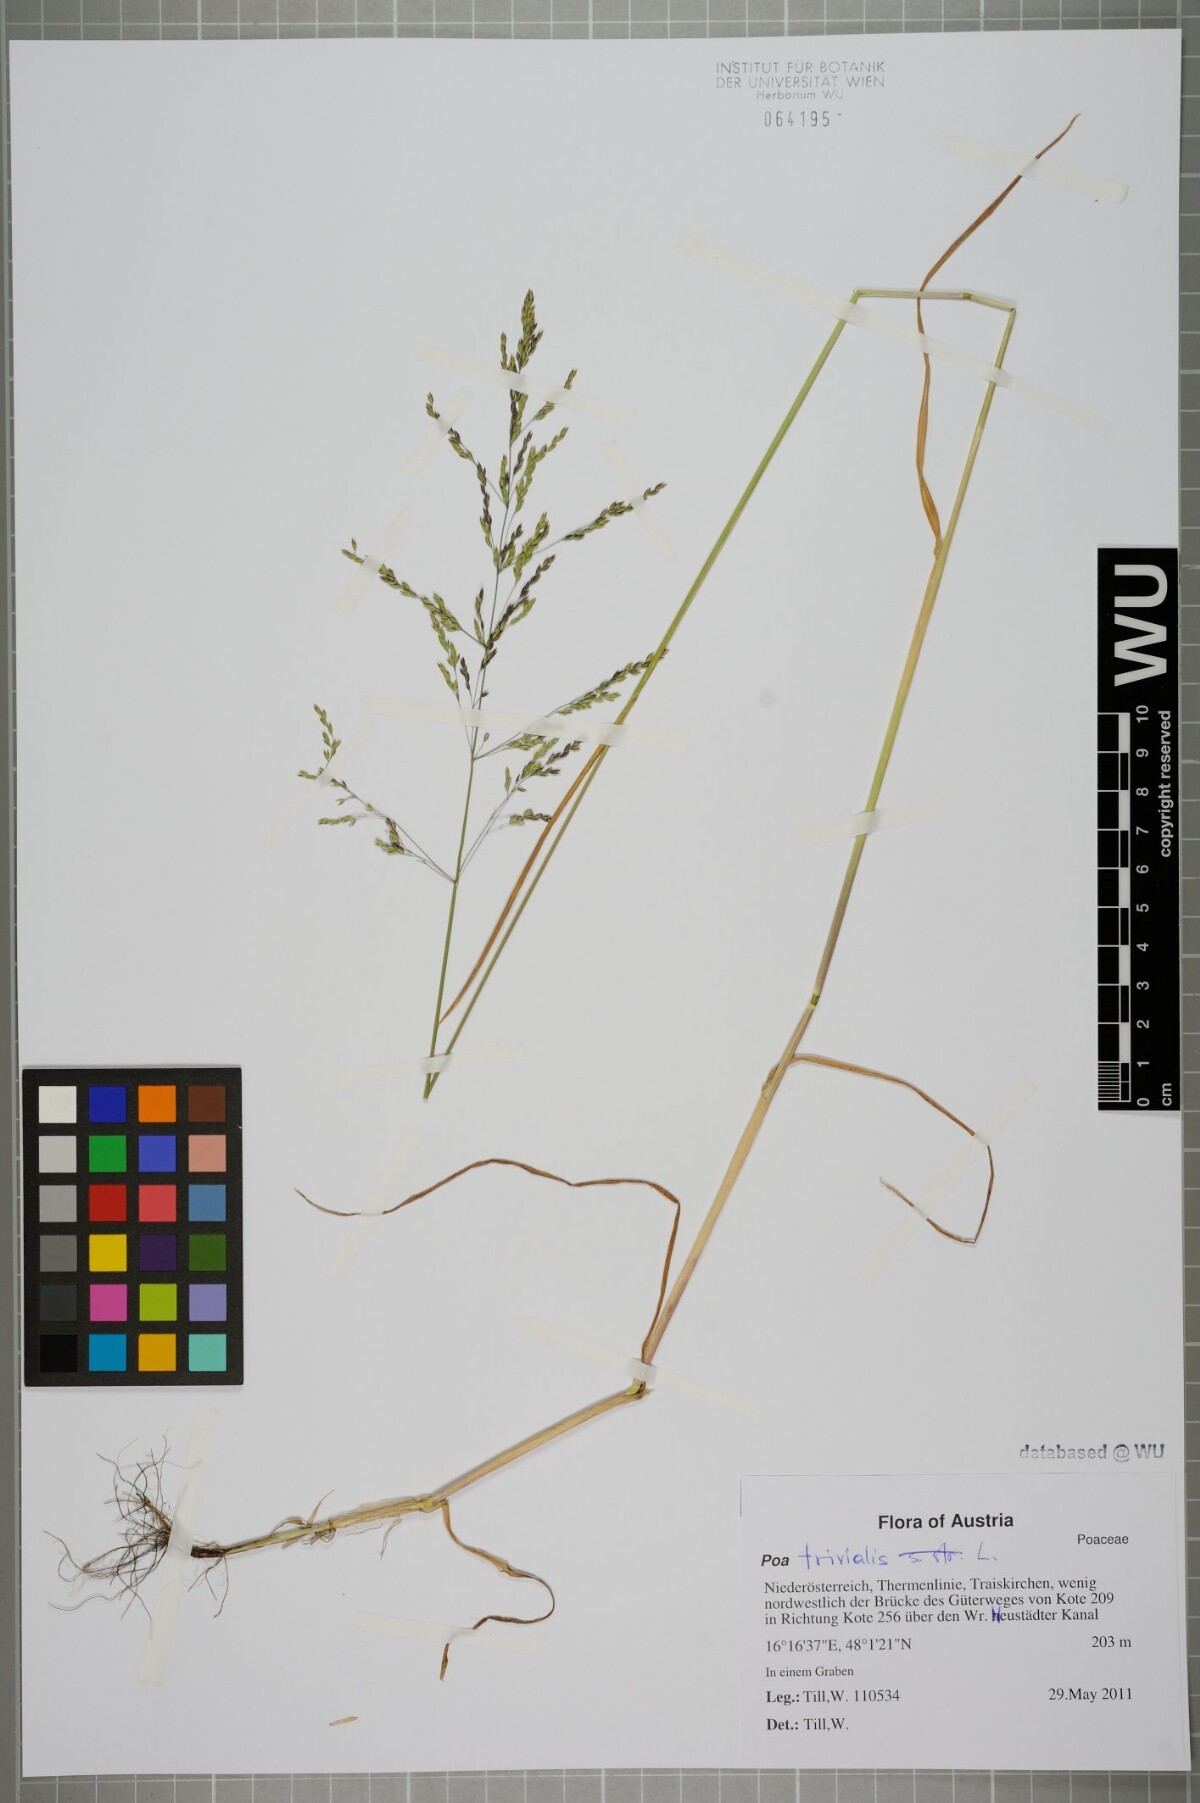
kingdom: Plantae
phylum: Tracheophyta
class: Liliopsida
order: Poales
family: Poaceae
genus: Poa
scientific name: Poa trivialis
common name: Rough bluegrass
